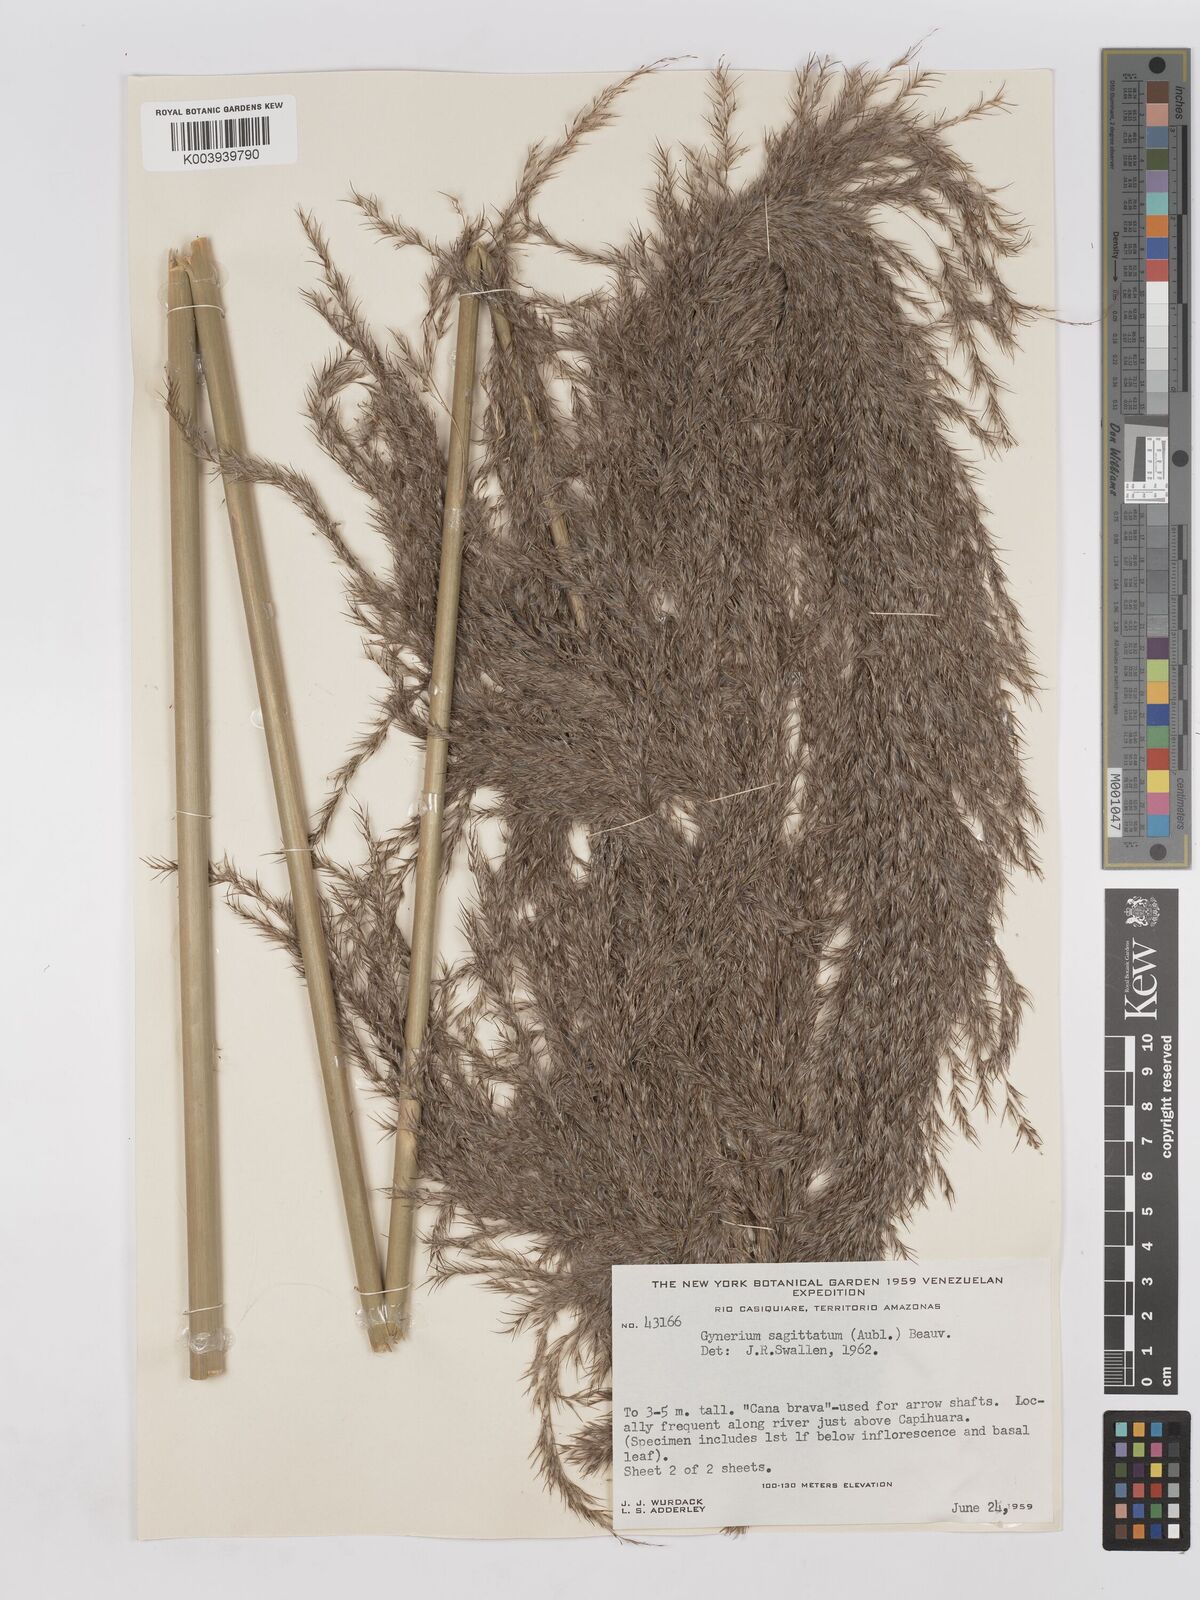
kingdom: Plantae
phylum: Tracheophyta
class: Liliopsida
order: Poales
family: Poaceae
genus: Gynerium
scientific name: Gynerium sagittatum
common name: Wild cane
